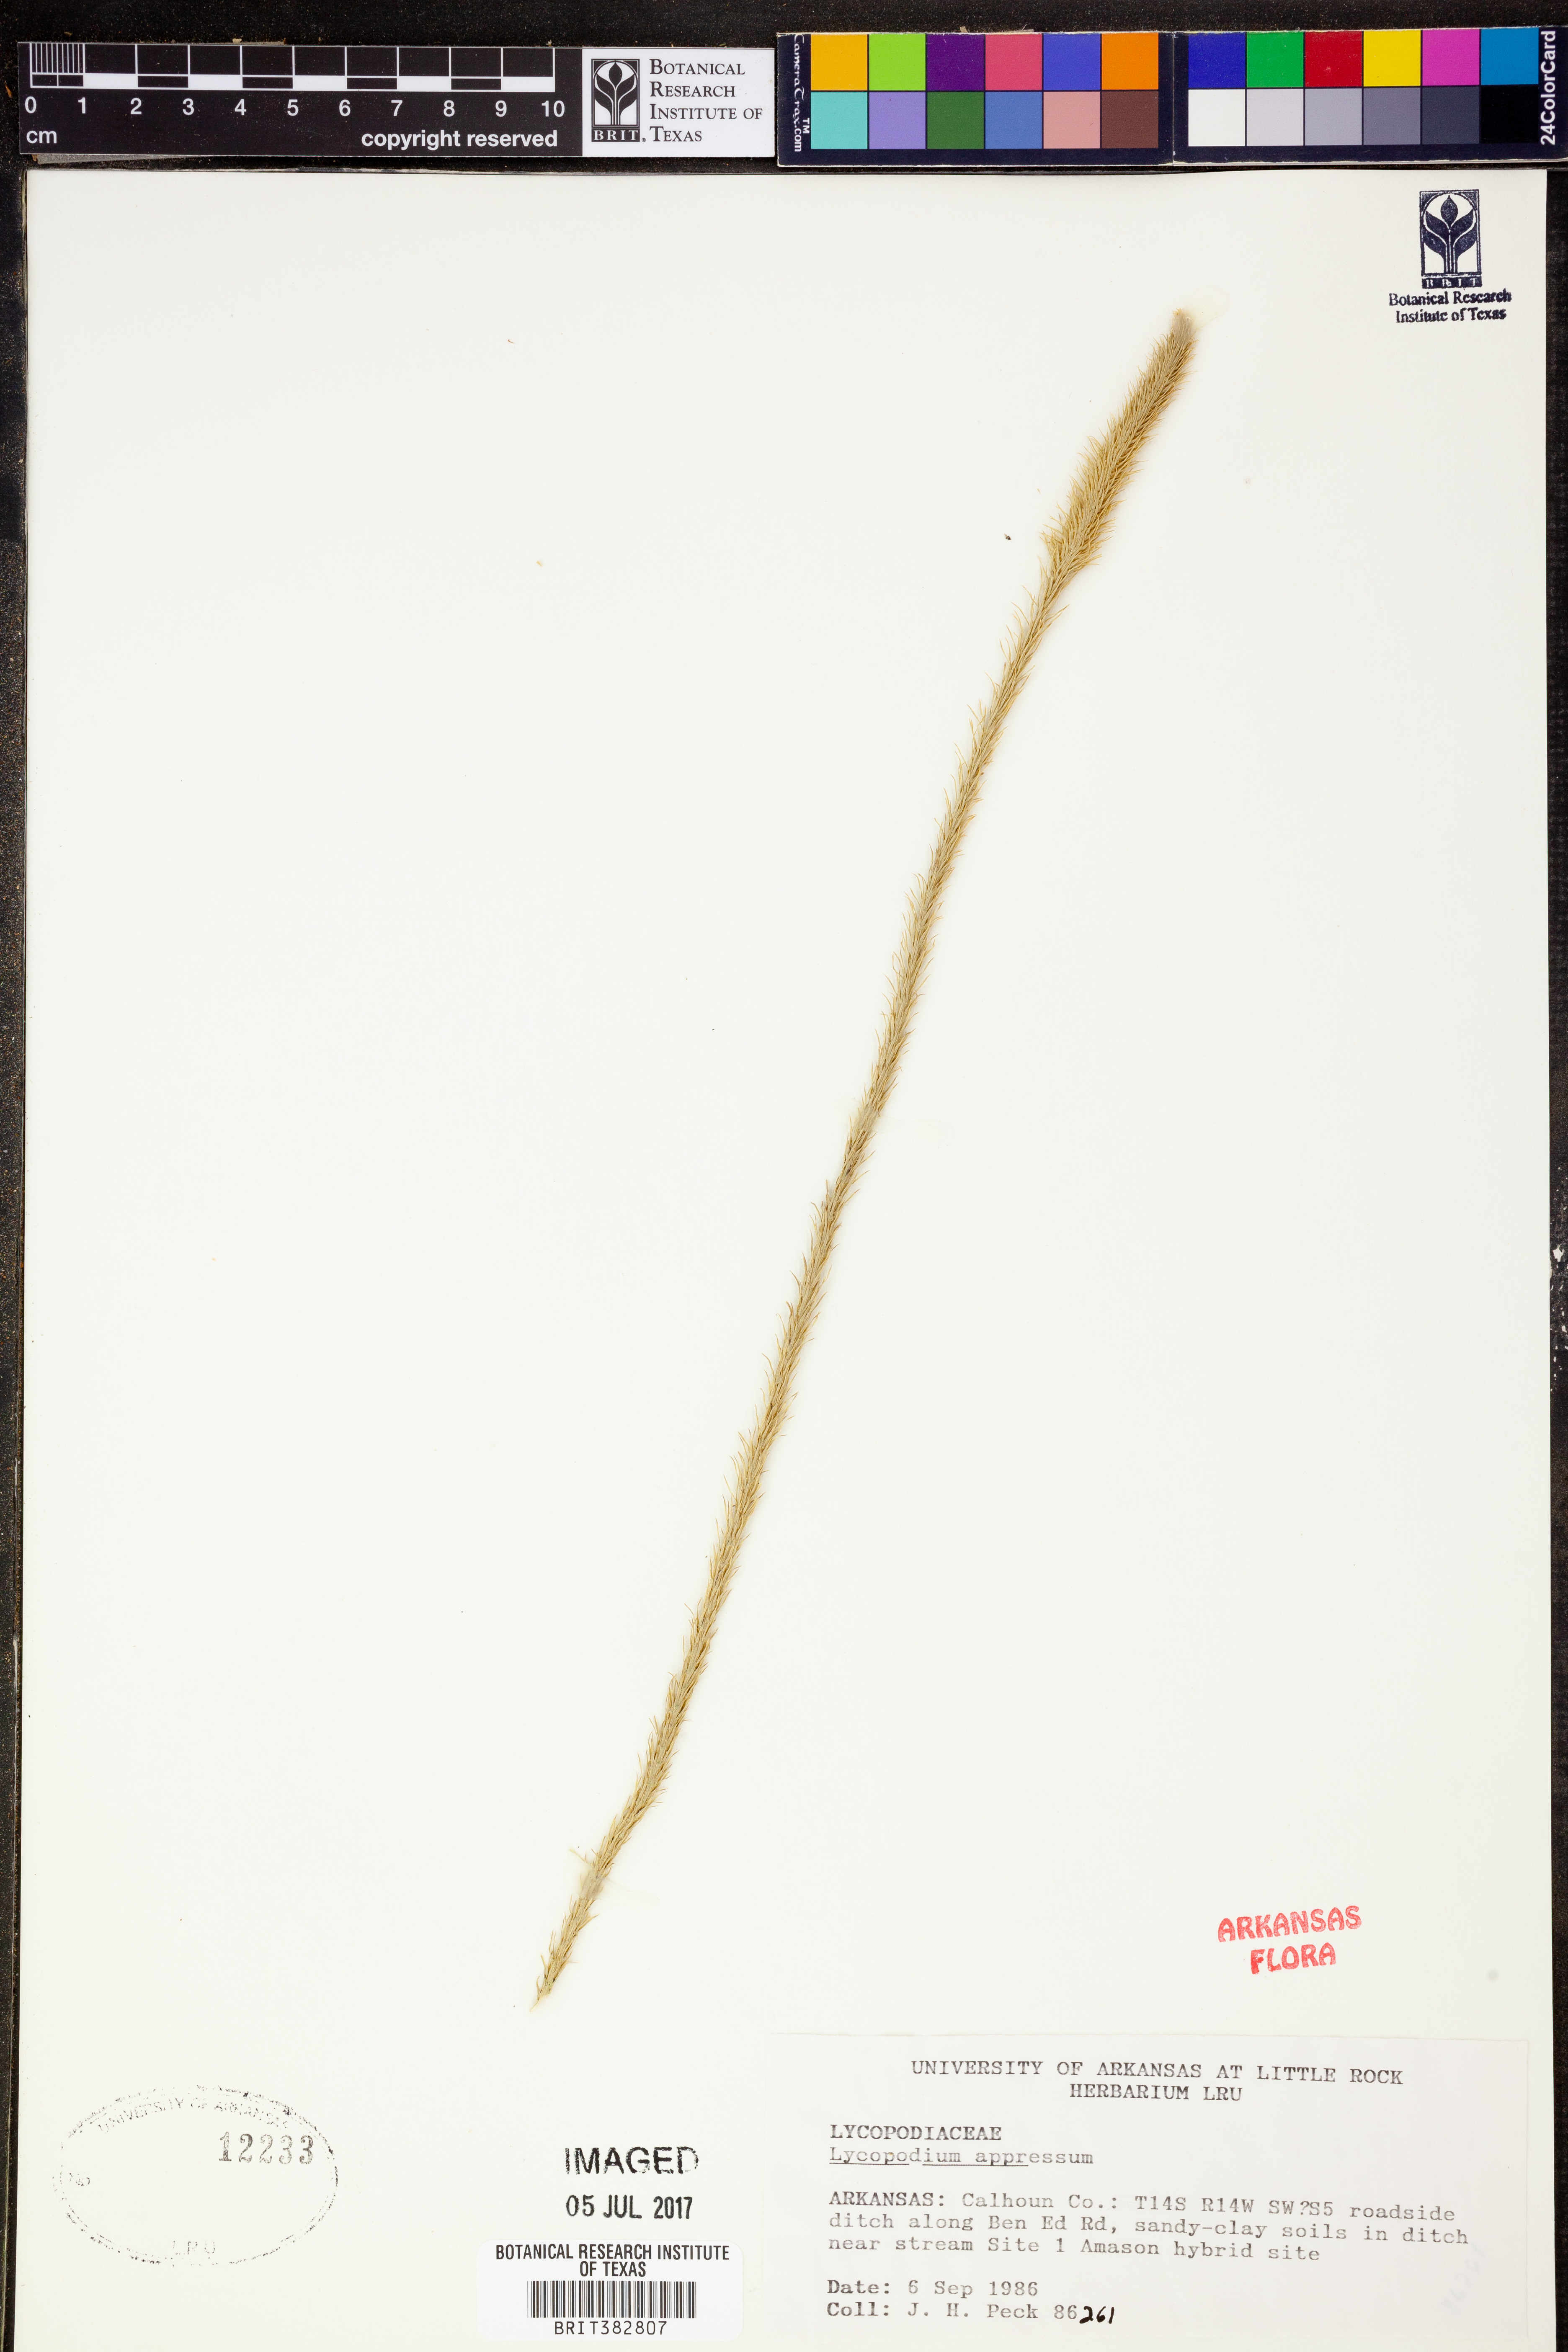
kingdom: Plantae
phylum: Tracheophyta
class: Lycopodiopsida
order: Lycopodiales
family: Lycopodiaceae
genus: Lycopodiella
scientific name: Lycopodiella appressa
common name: Appressed bog clubmoss
